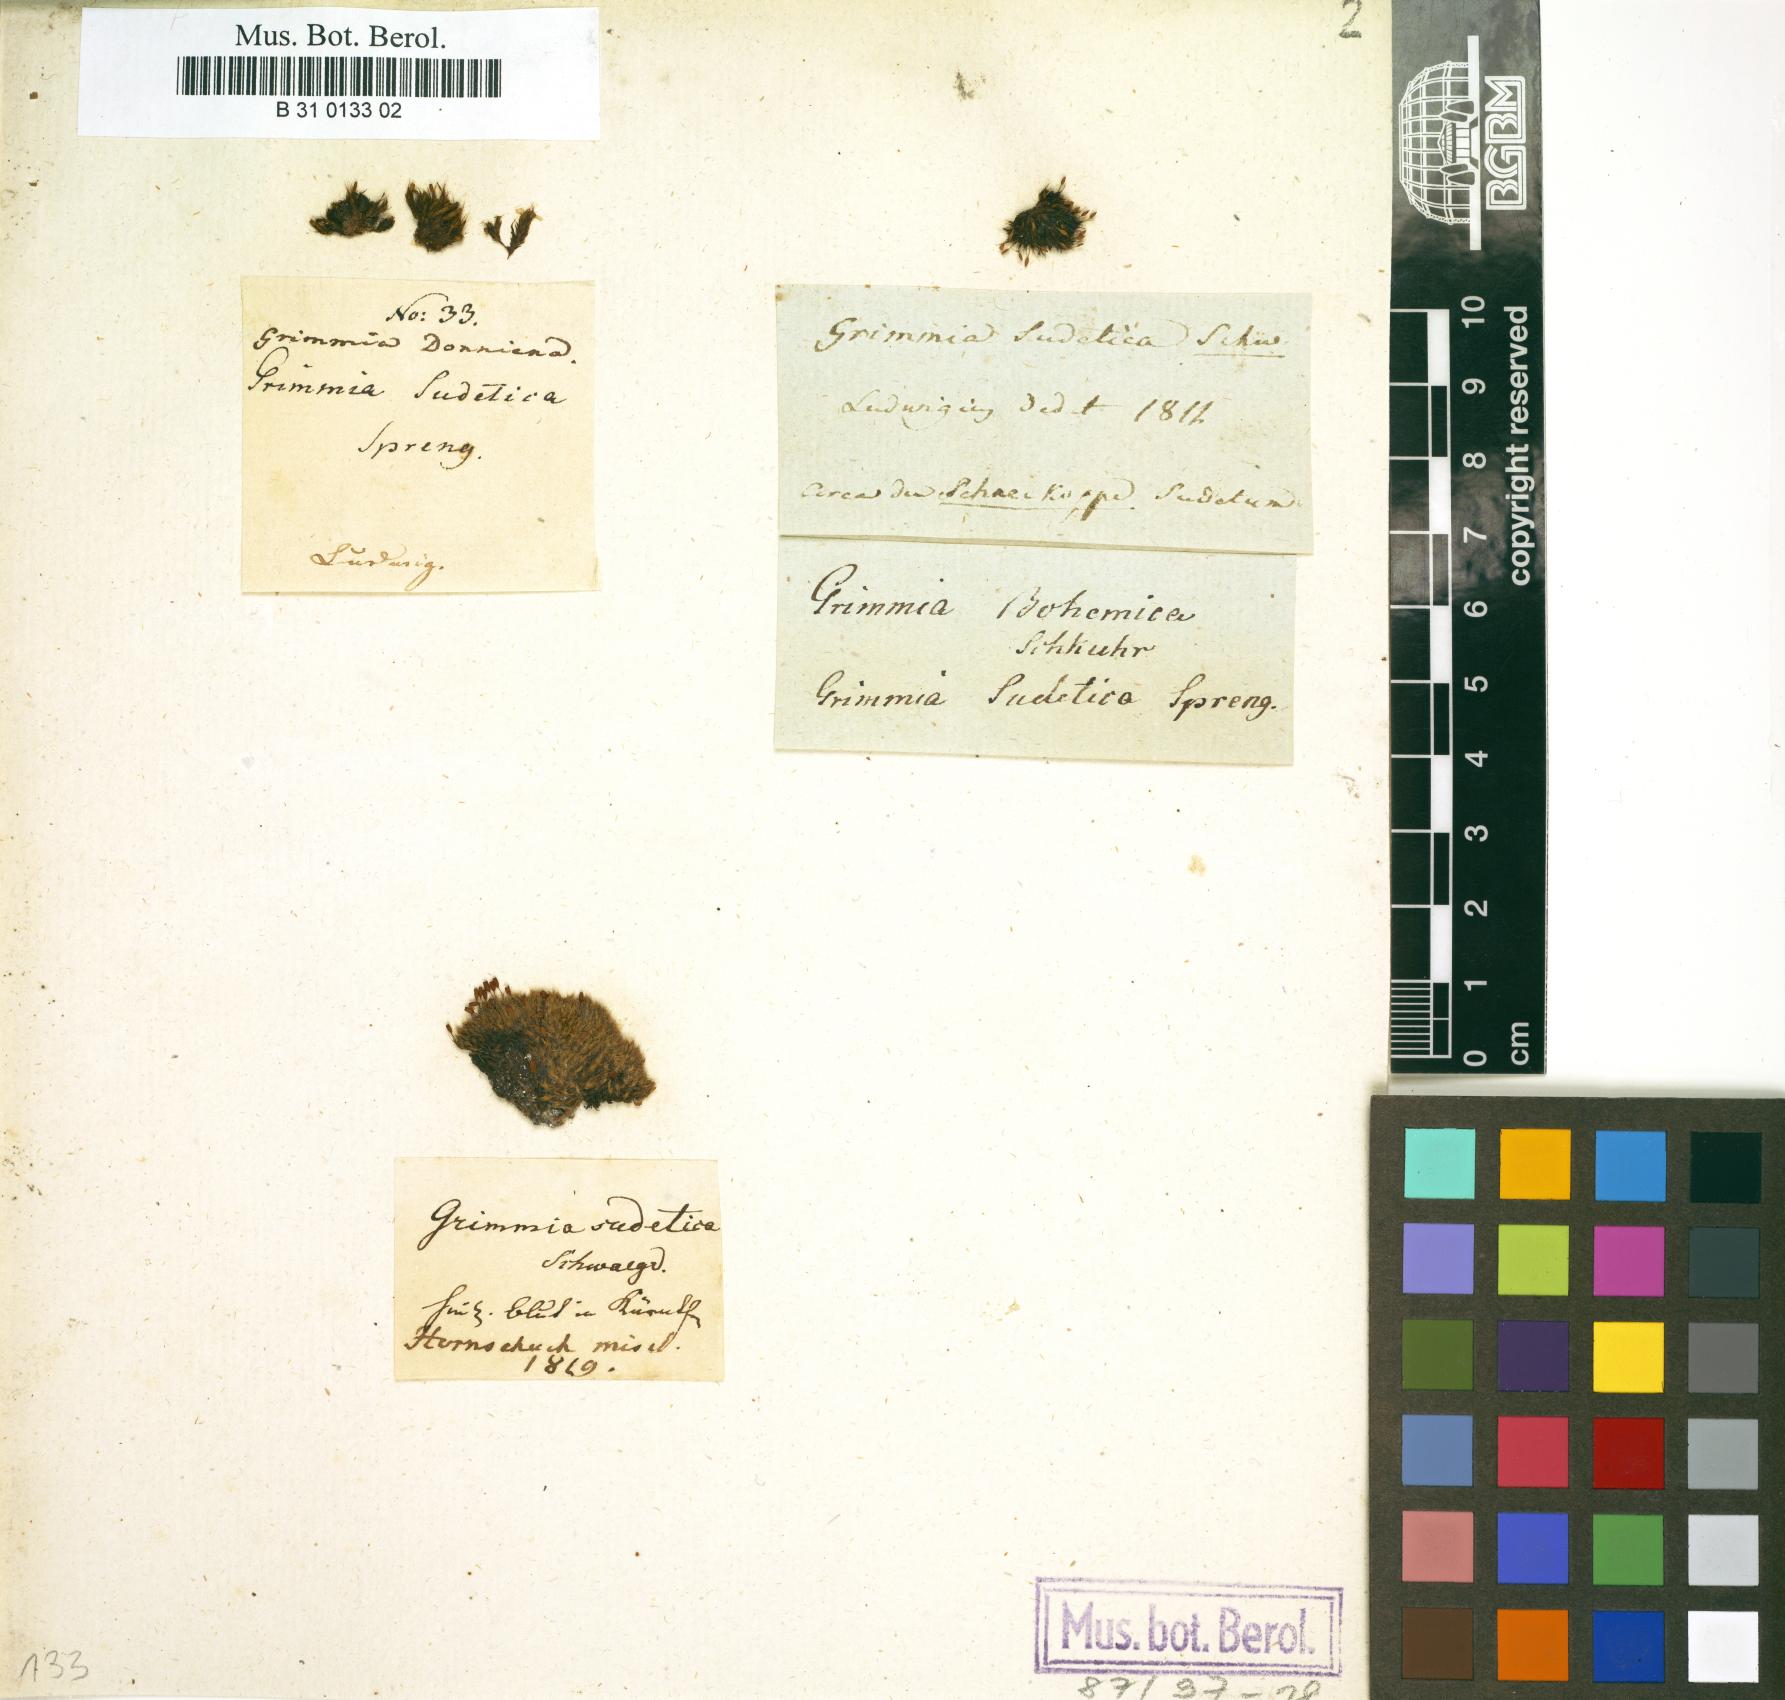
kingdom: Plantae
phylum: Bryophyta
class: Bryopsida
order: Grimmiales
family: Grimmiaceae
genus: Grimmia
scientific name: Grimmia donniana
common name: Donn's grimmia
